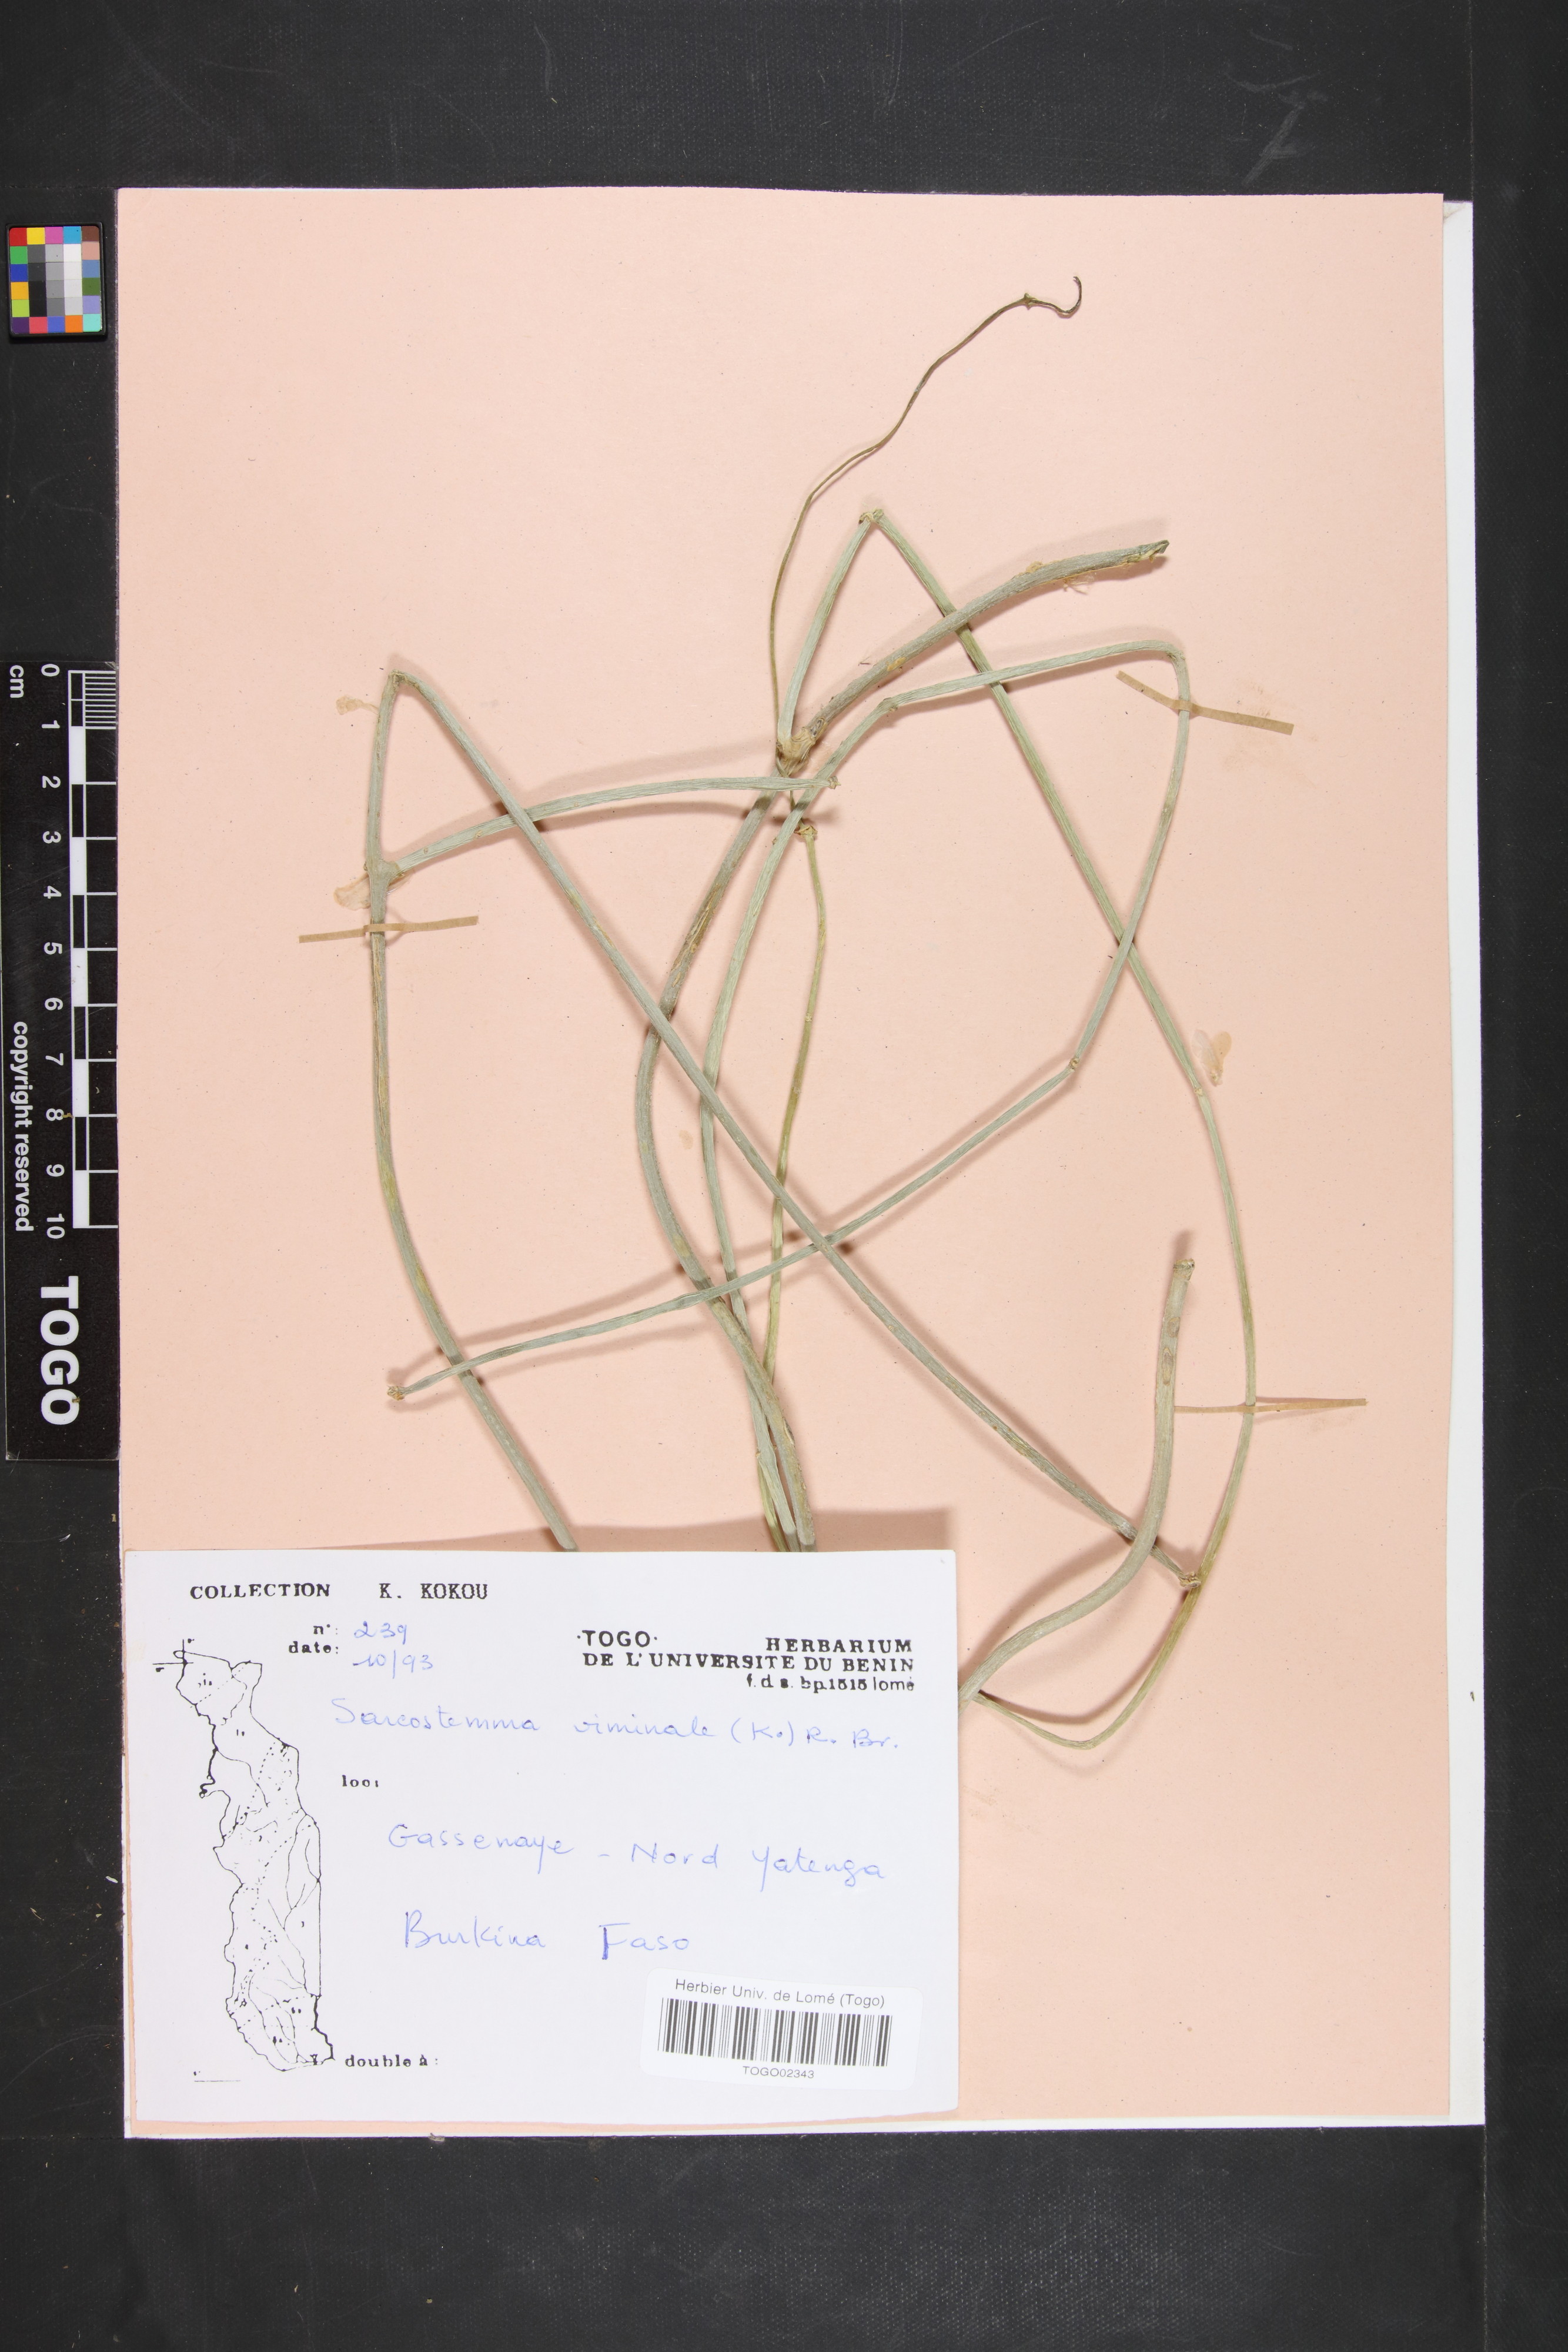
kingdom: Plantae
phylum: Tracheophyta
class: Magnoliopsida
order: Gentianales
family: Apocynaceae
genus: Cynanchum
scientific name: Cynanchum viminale
